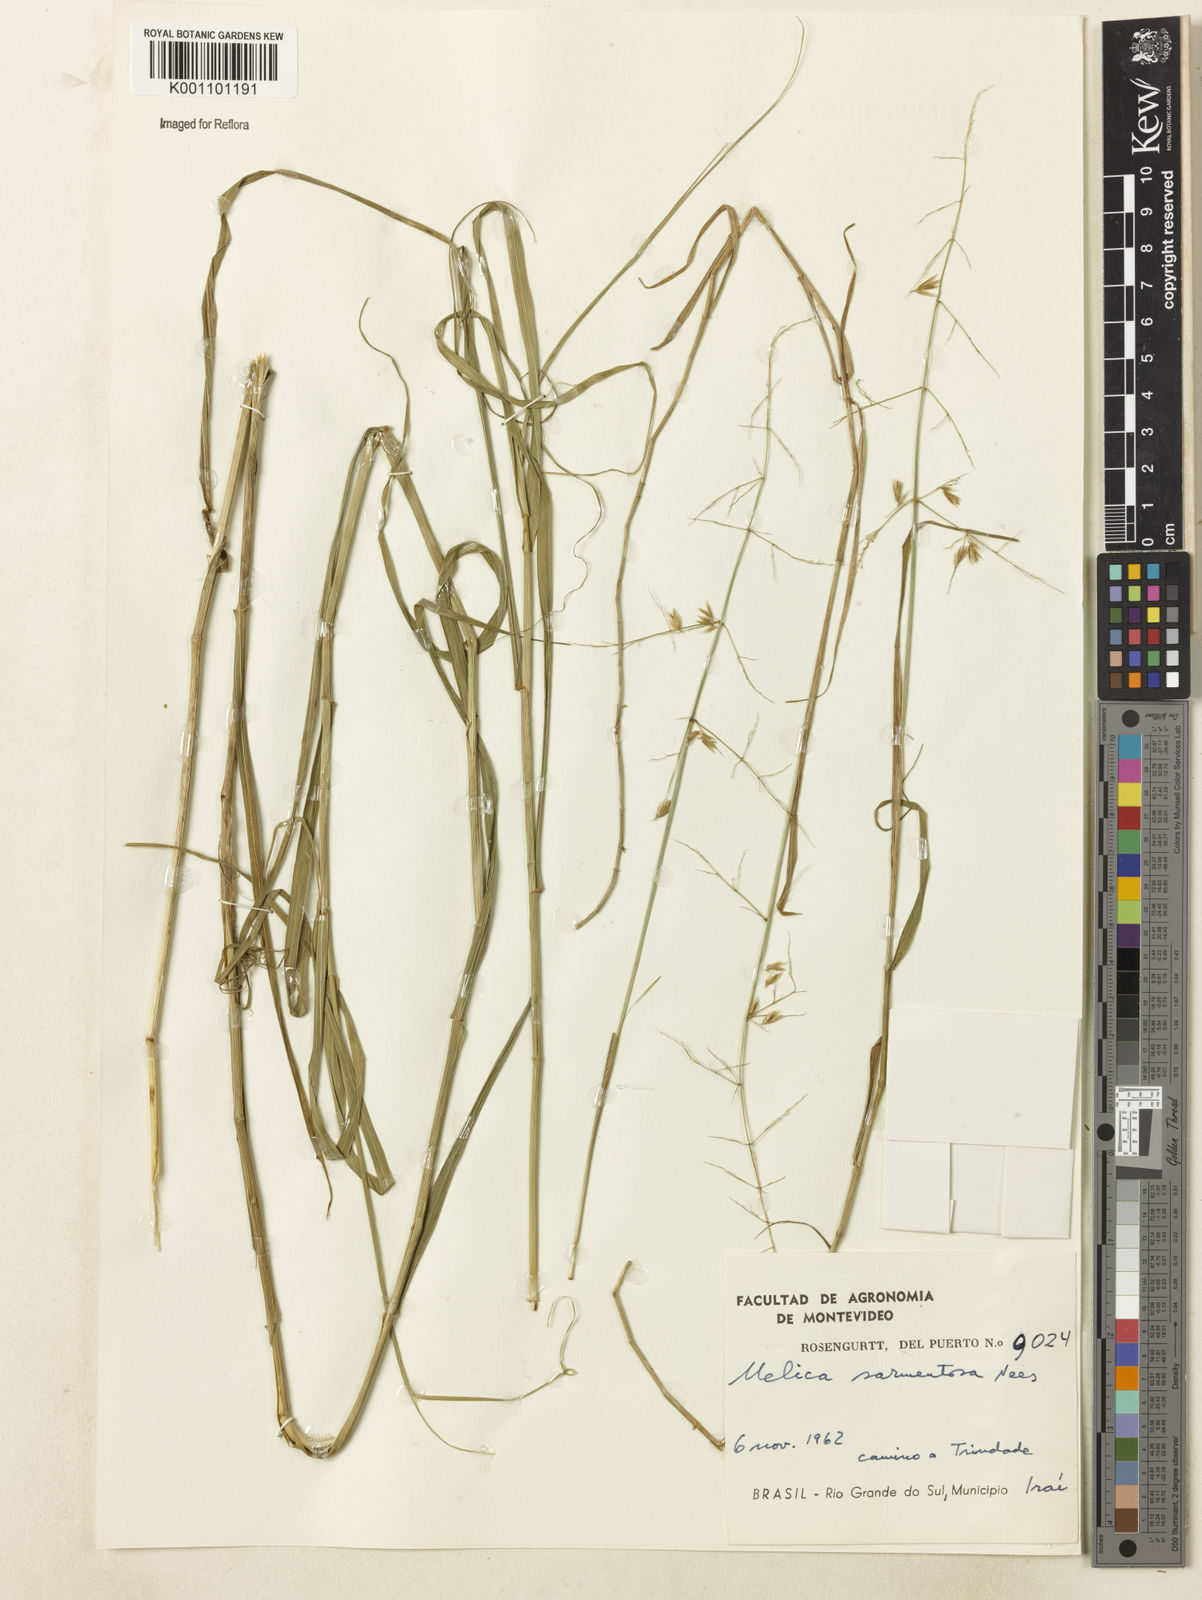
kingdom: Plantae
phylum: Tracheophyta
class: Liliopsida
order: Poales
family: Poaceae
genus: Melica
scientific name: Melica sarmentosa
